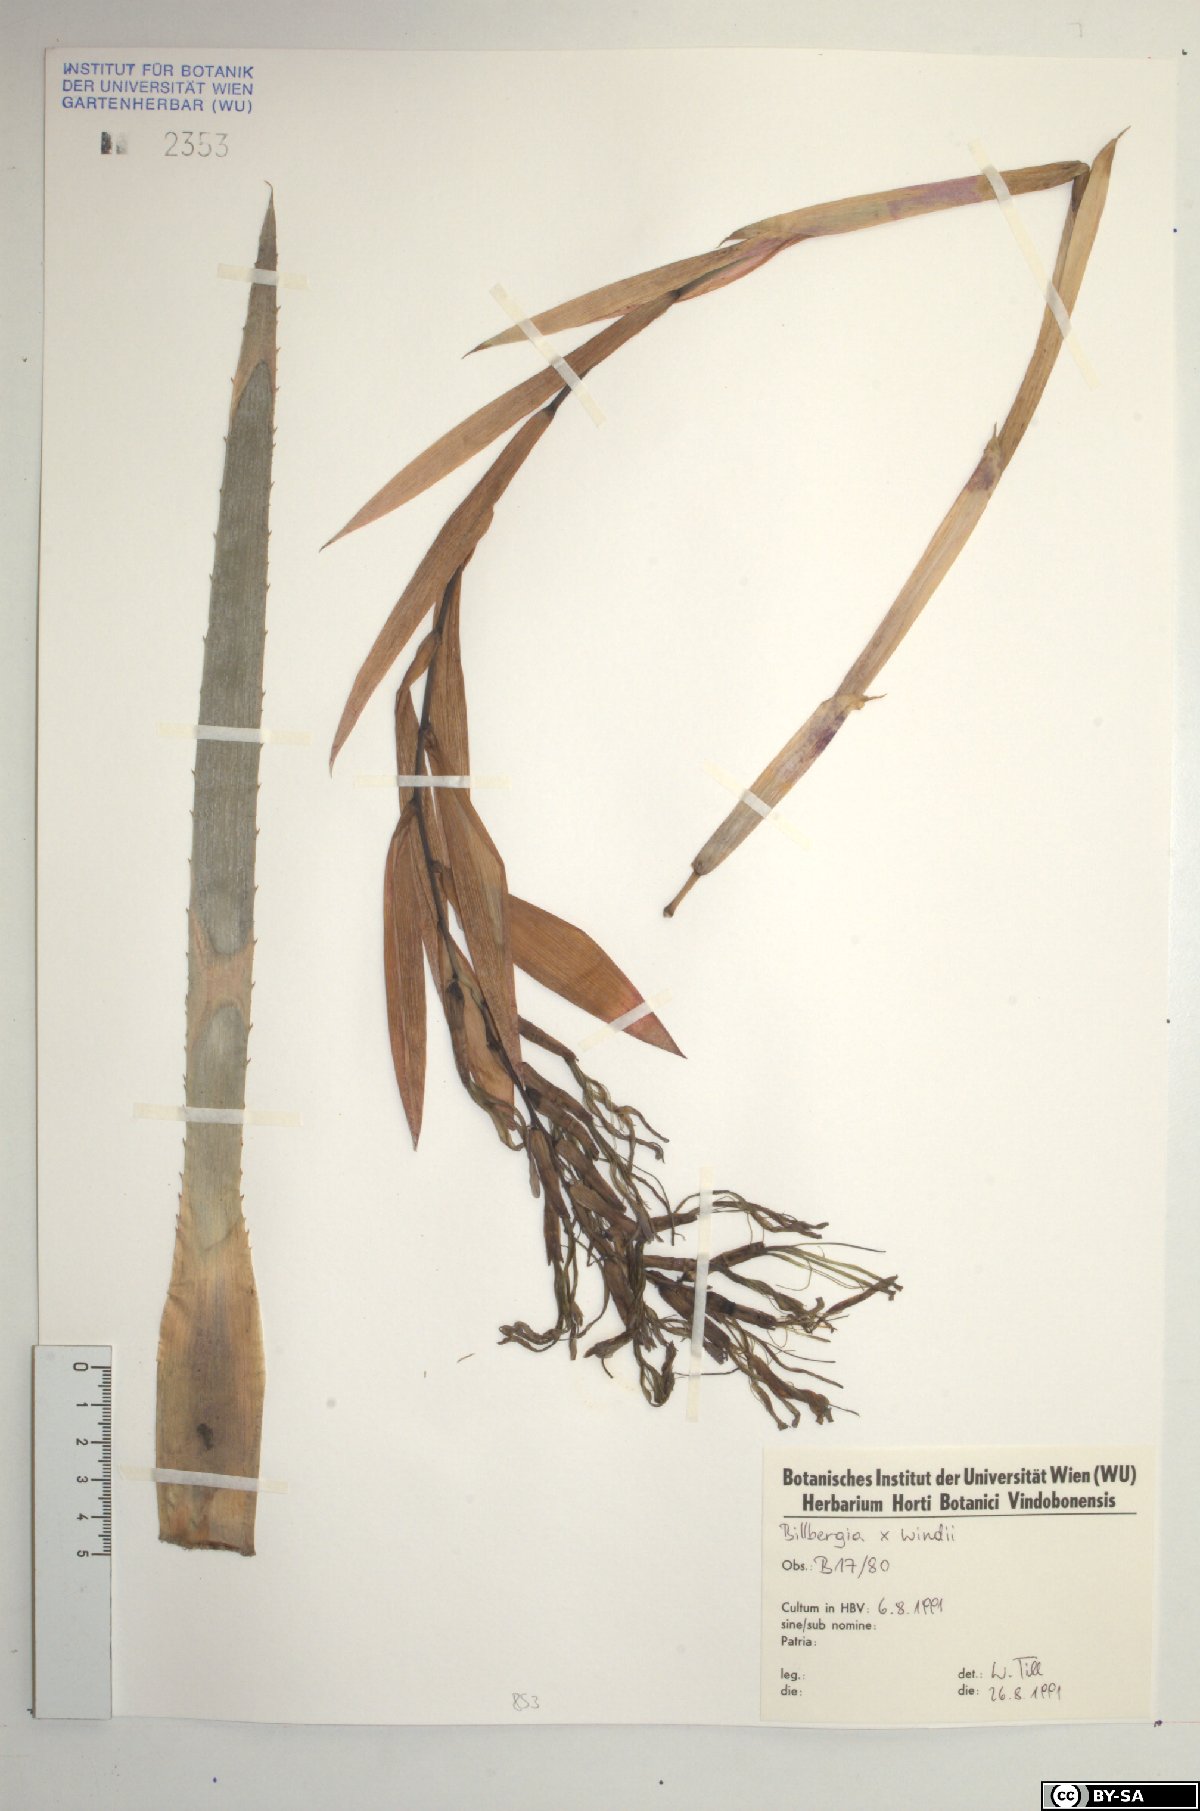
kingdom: Plantae
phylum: Tracheophyta
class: Liliopsida
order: Poales
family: Bromeliaceae
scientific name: Bromeliaceae
